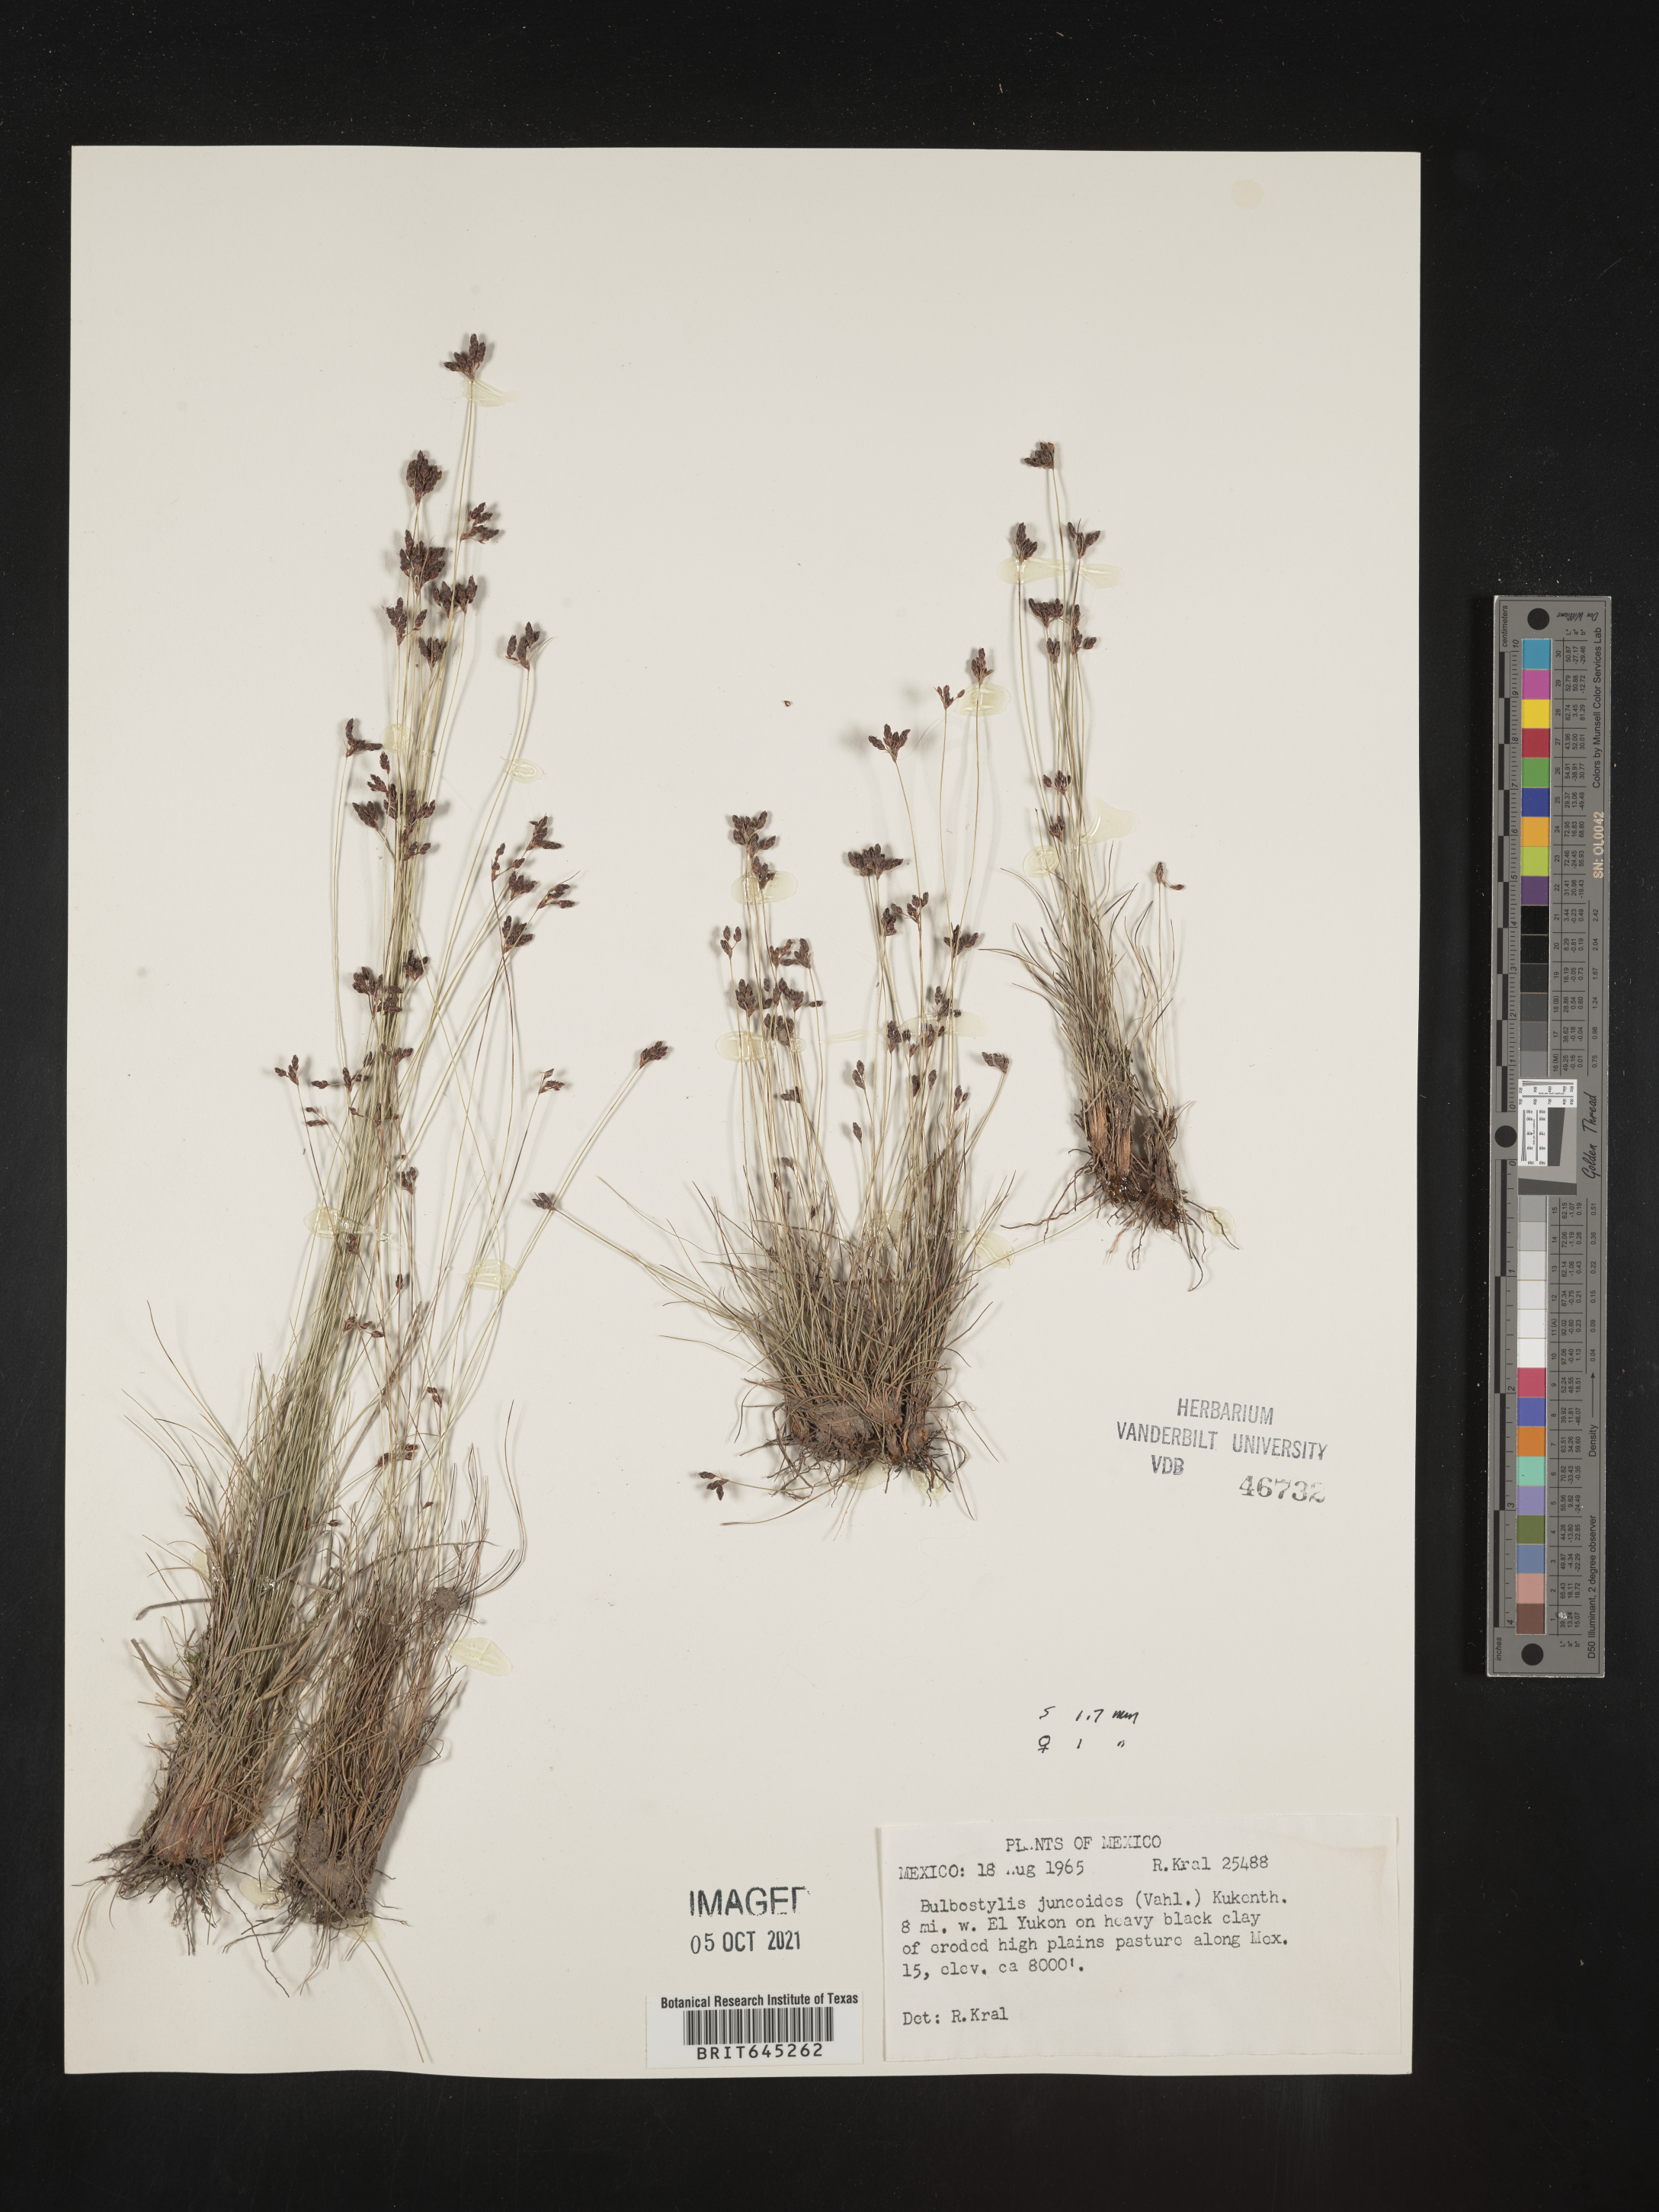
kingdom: Plantae
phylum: Tracheophyta
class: Liliopsida
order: Poales
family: Cyperaceae
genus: Bulbostylis
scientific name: Bulbostylis juncoides
